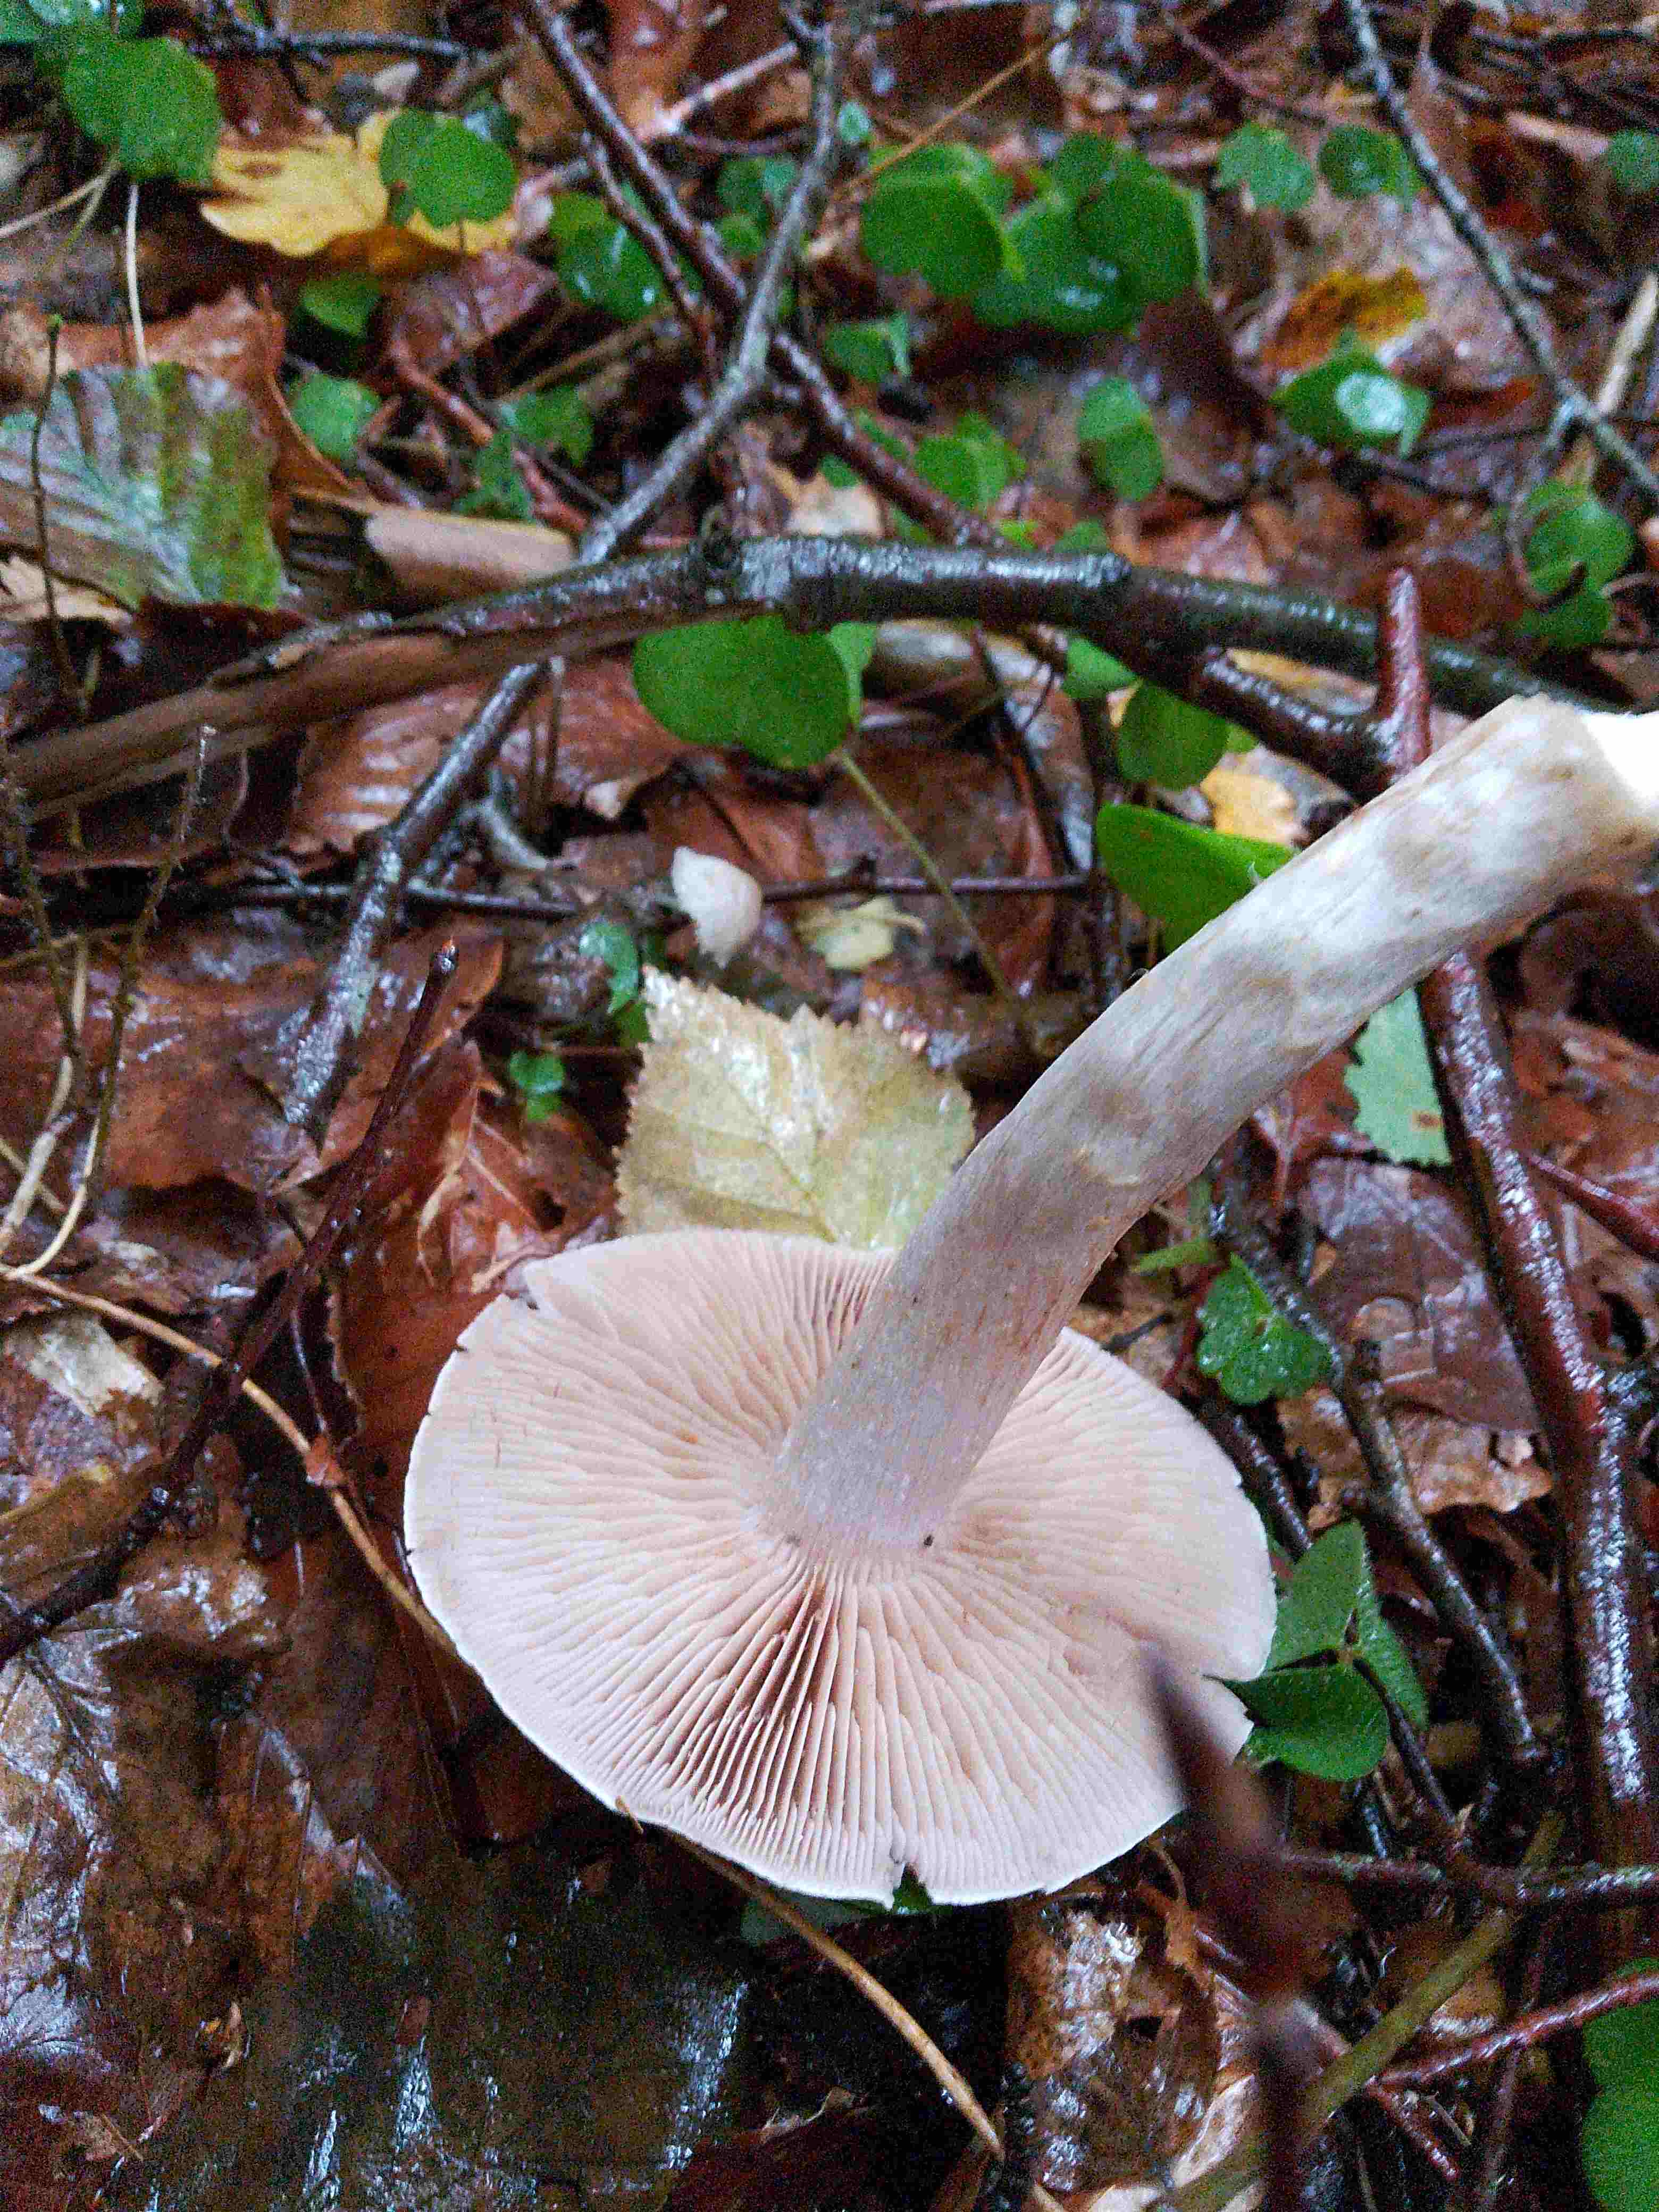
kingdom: Fungi
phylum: Basidiomycota
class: Agaricomycetes
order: Agaricales
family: Cortinariaceae
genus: Cortinarius
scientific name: Cortinarius
